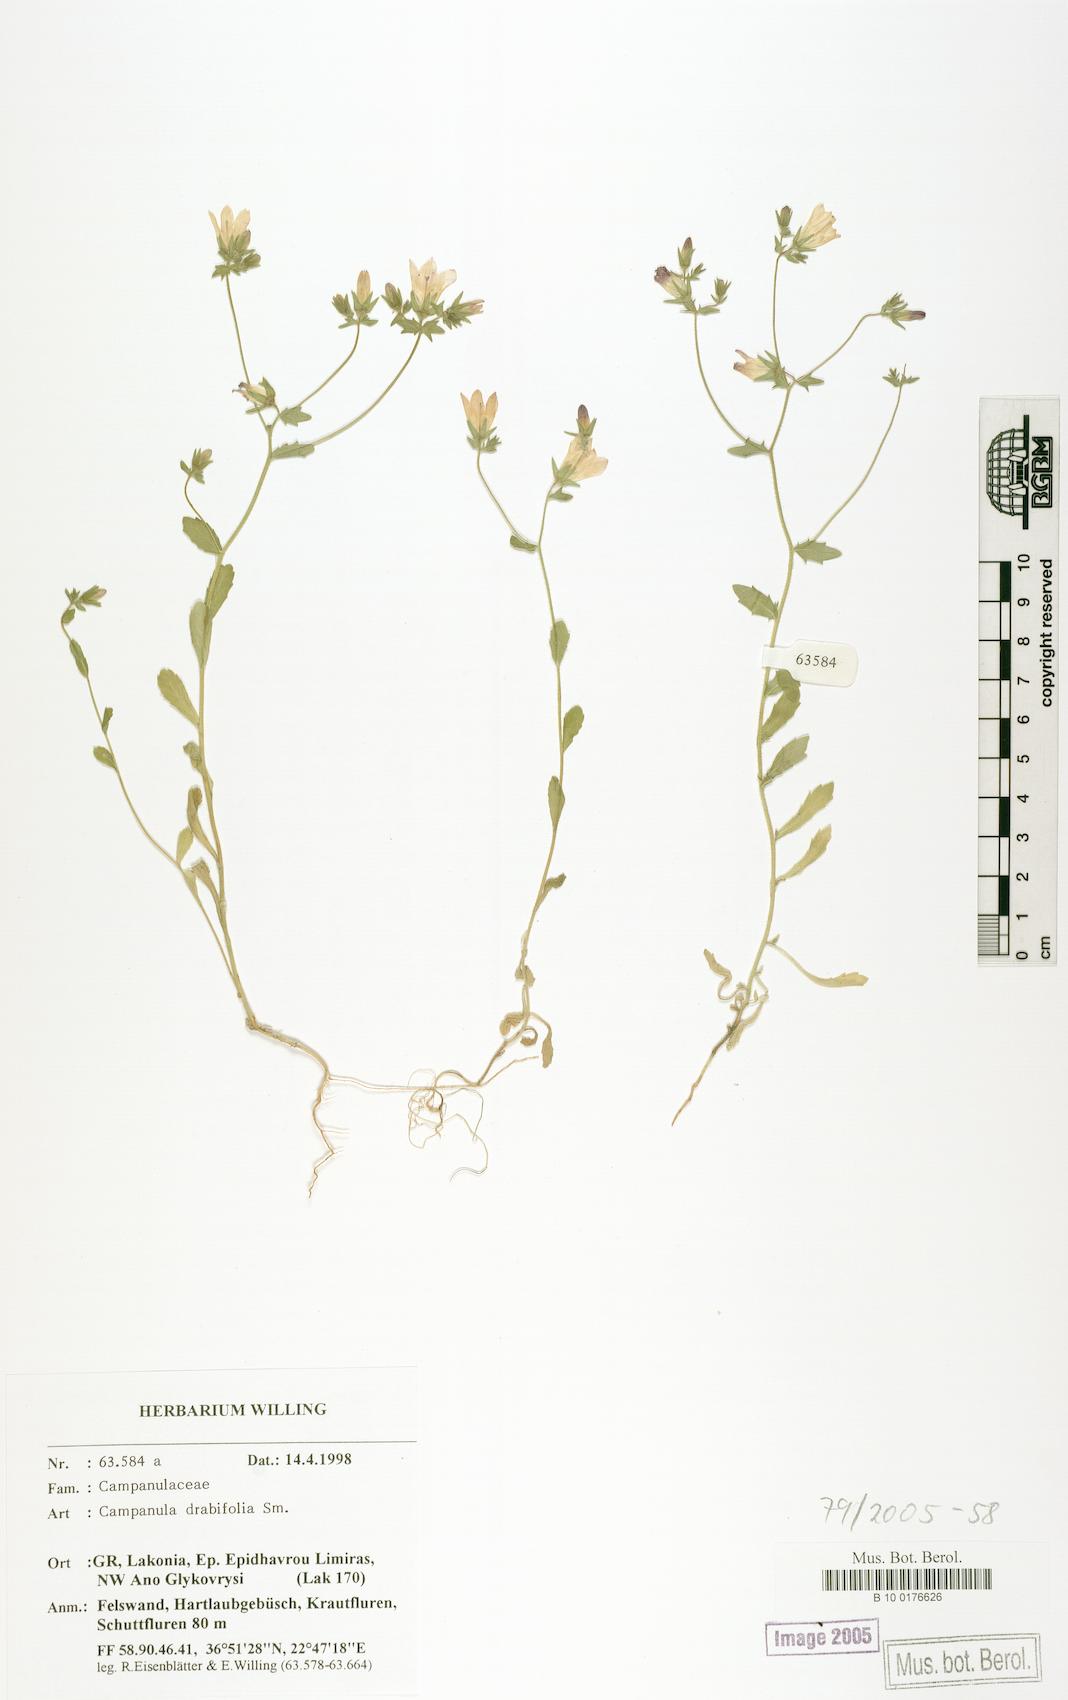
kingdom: Plantae
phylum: Tracheophyta
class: Magnoliopsida
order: Asterales
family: Campanulaceae
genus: Campanula
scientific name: Campanula drabifolia
